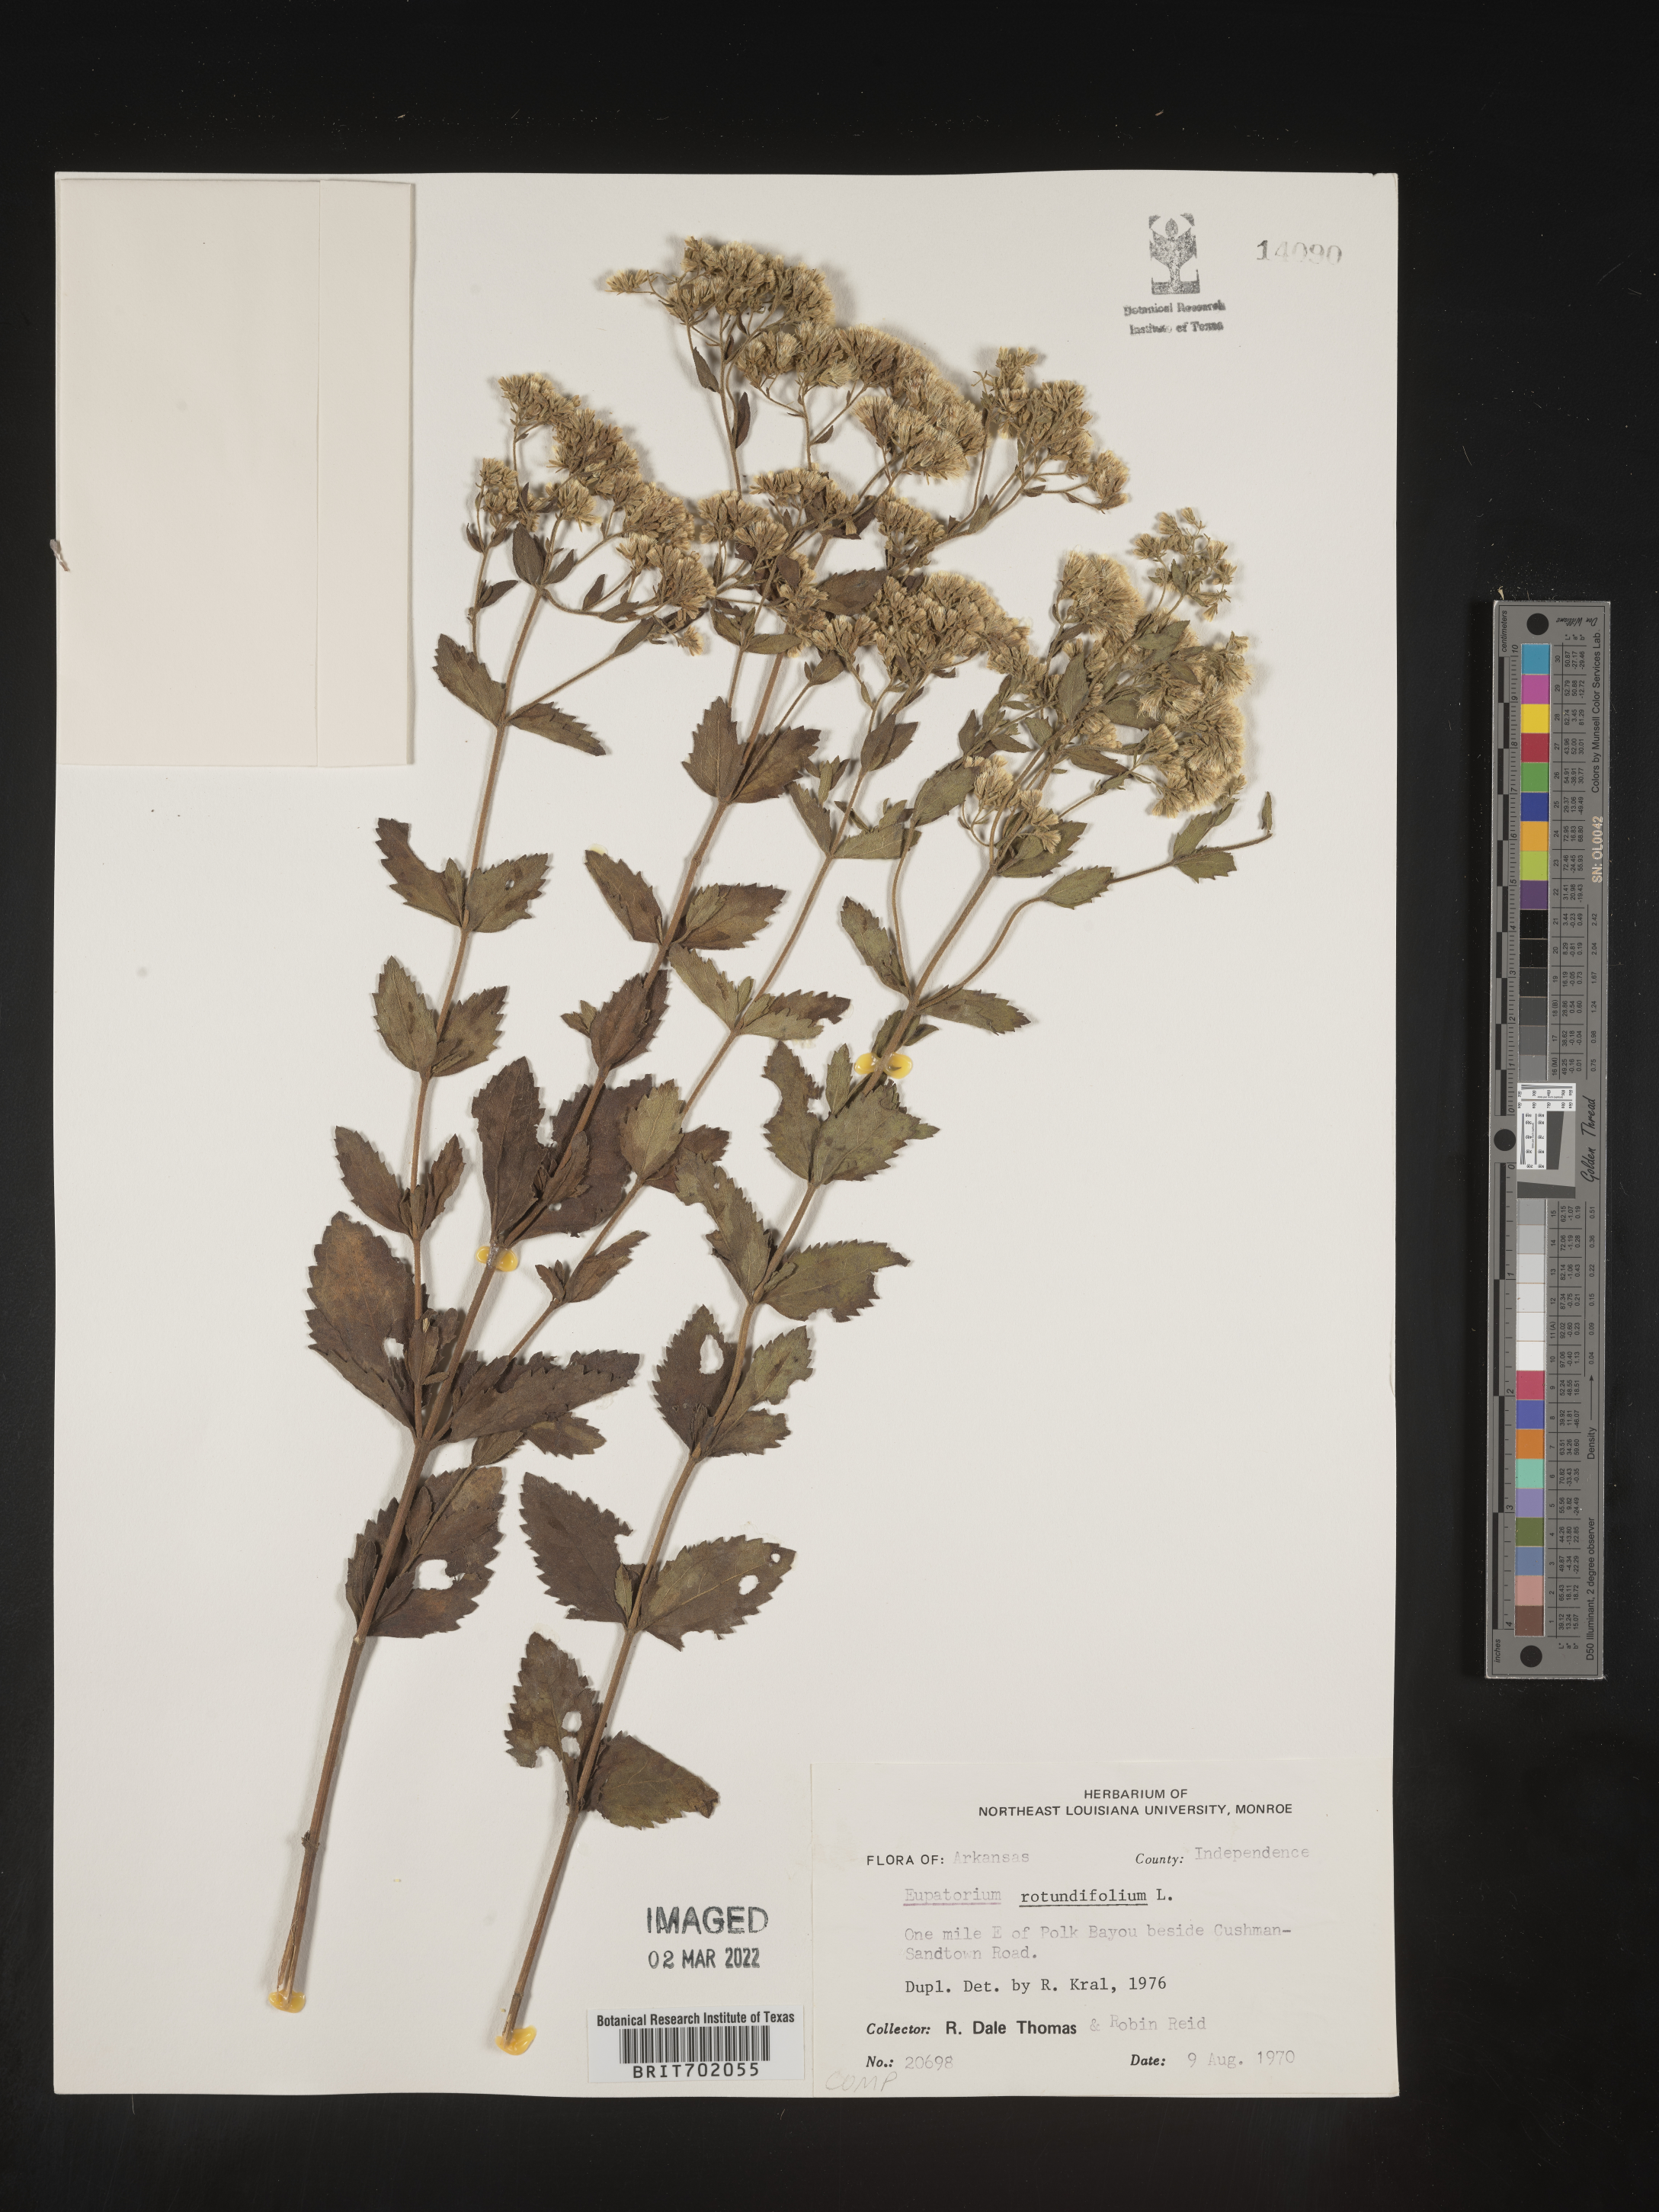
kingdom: Plantae
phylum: Tracheophyta
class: Magnoliopsida
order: Asterales
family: Asteraceae
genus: Eupatorium
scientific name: Eupatorium rotundifolium
